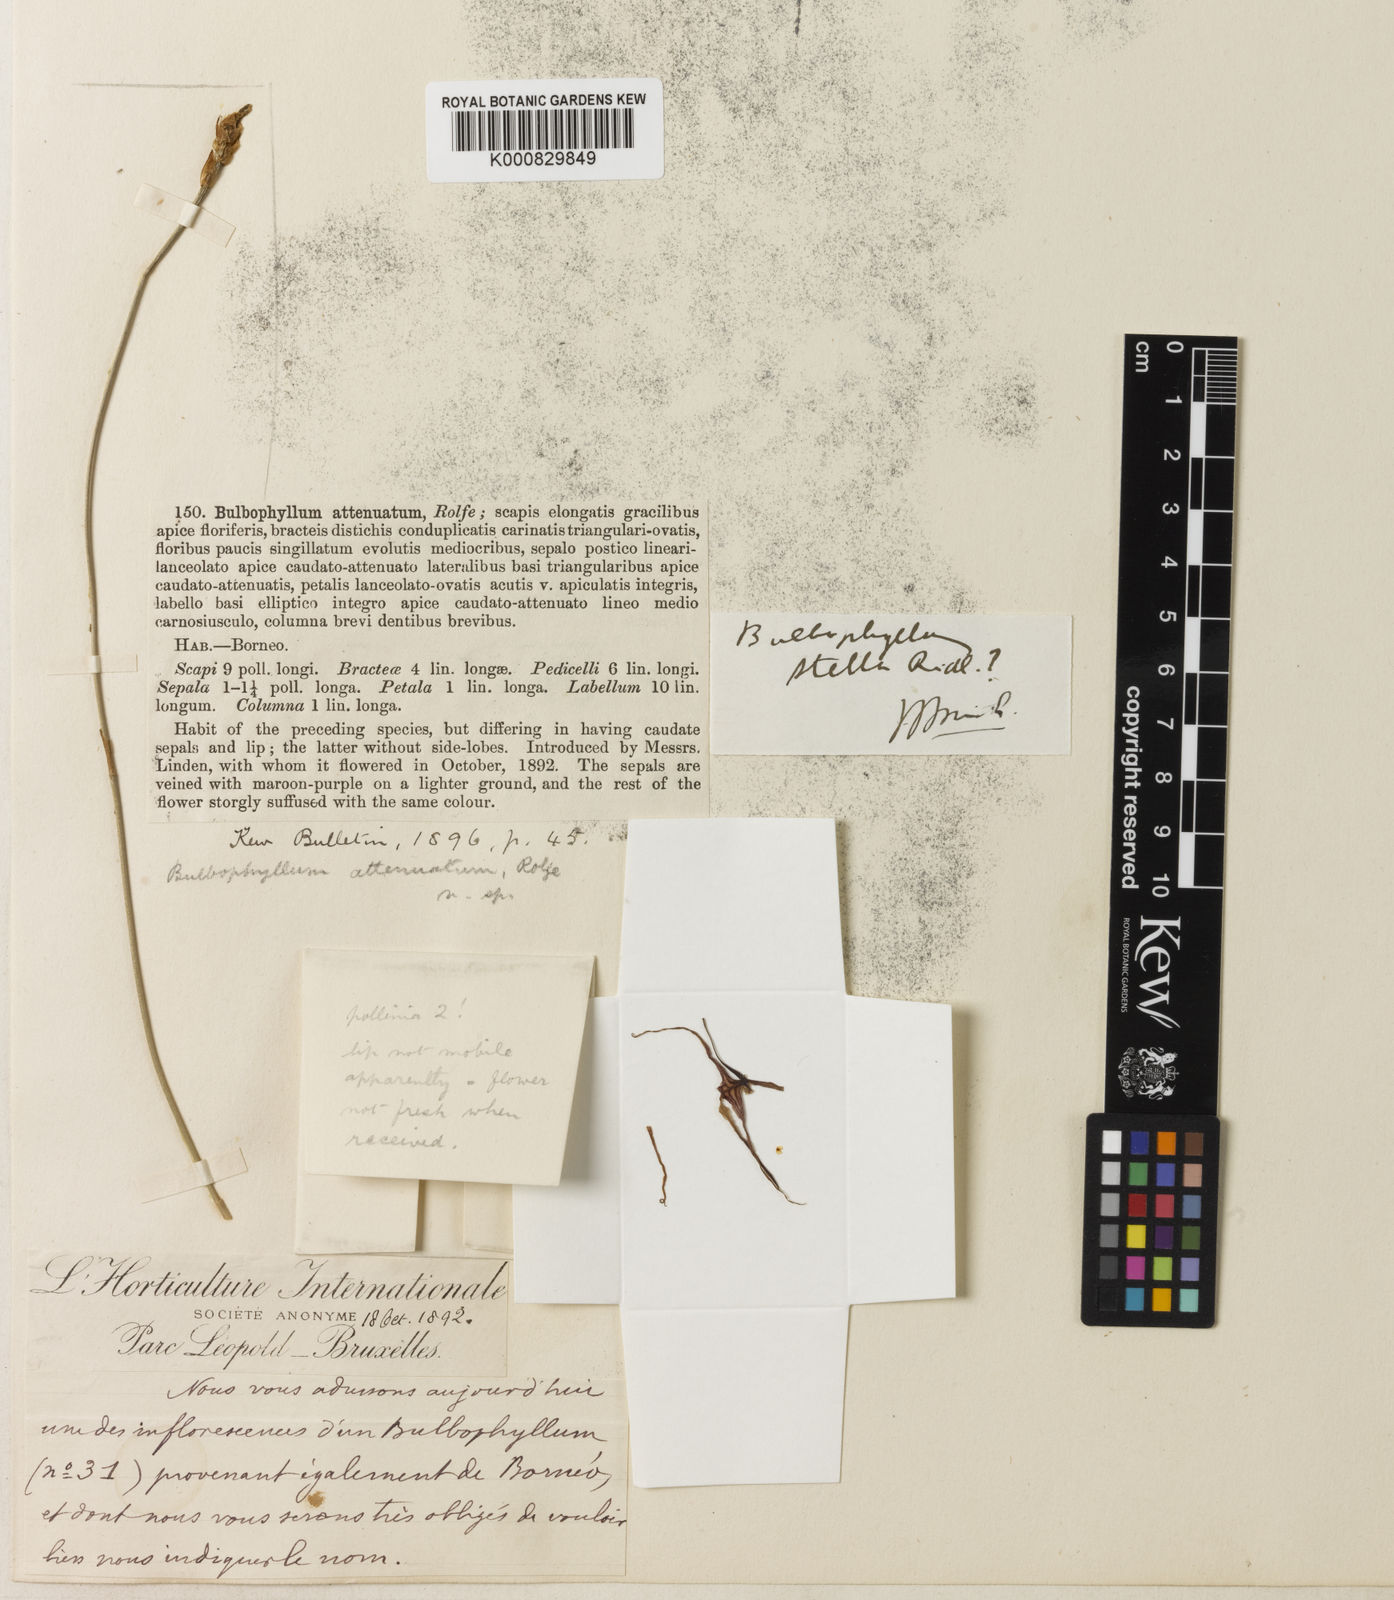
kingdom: Plantae
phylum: Tracheophyta
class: Liliopsida
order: Asparagales
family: Orchidaceae
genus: Bulbophyllum
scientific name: Bulbophyllum attenuatum
